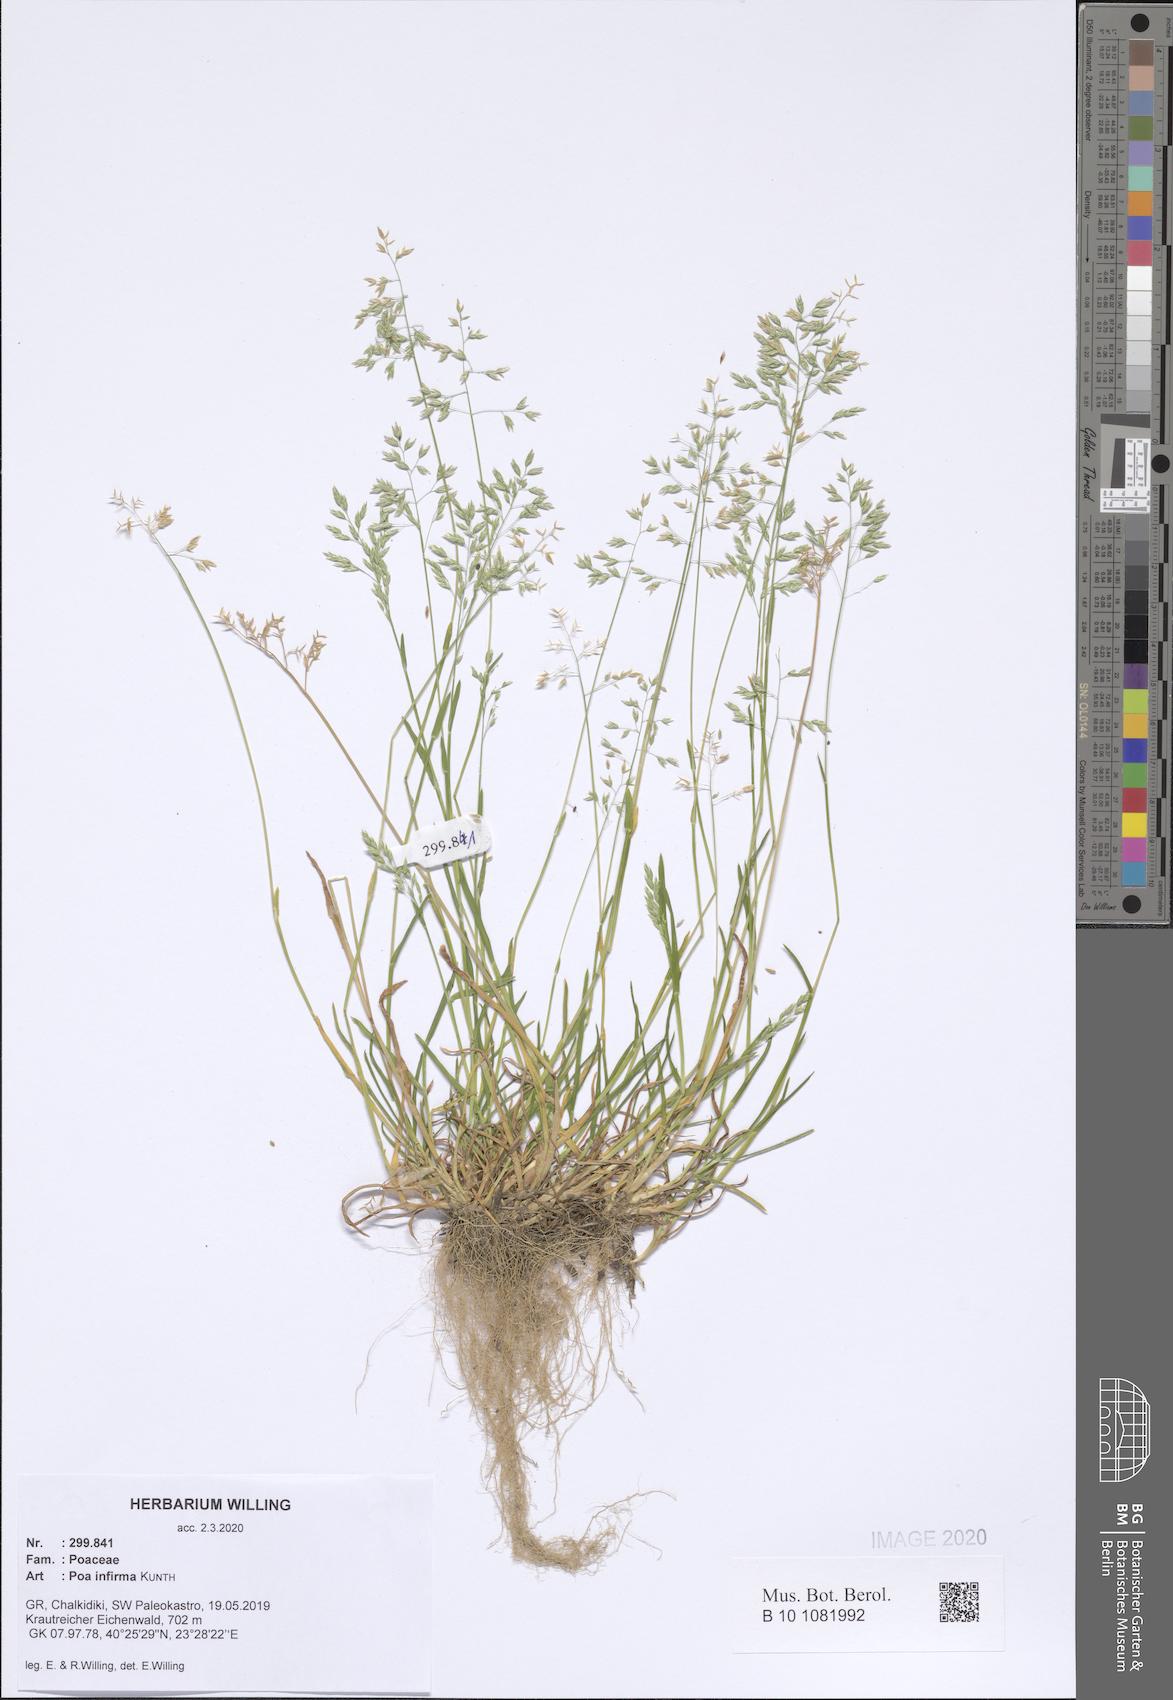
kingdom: Plantae
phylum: Tracheophyta
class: Liliopsida
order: Poales
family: Poaceae
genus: Poa
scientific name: Poa infirma
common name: Weak bluegrass
